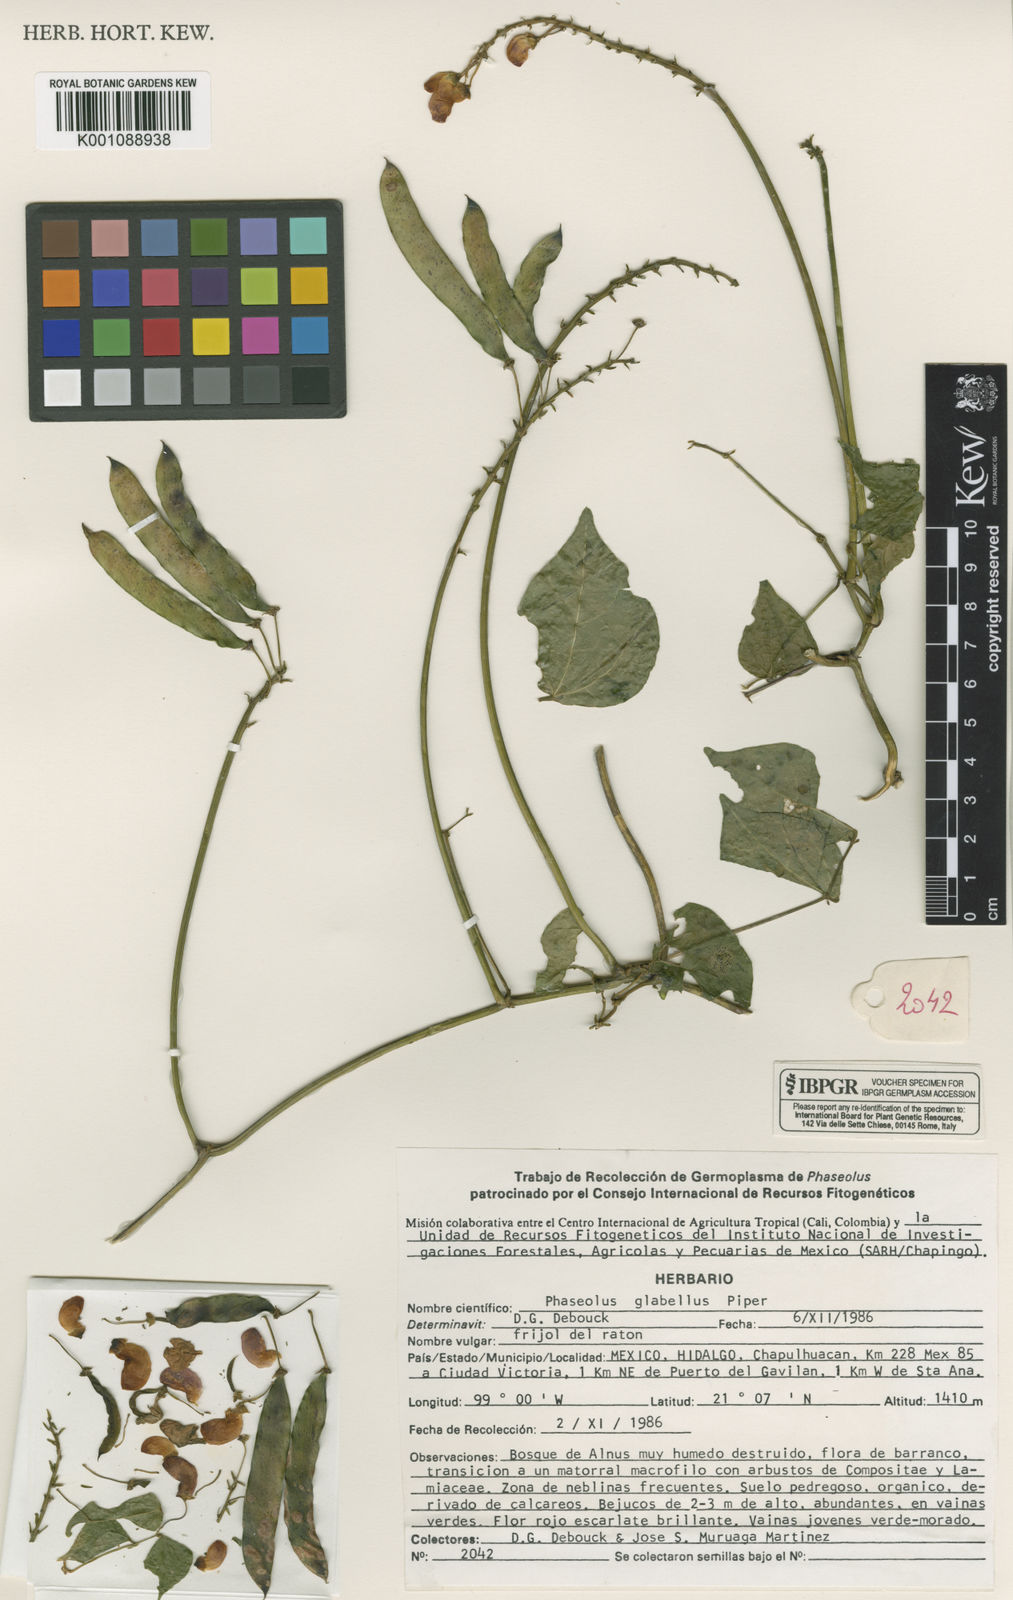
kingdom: Plantae
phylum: Tracheophyta
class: Magnoliopsida
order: Fabales
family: Fabaceae
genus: Phaseolus
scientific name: Phaseolus glabellus
